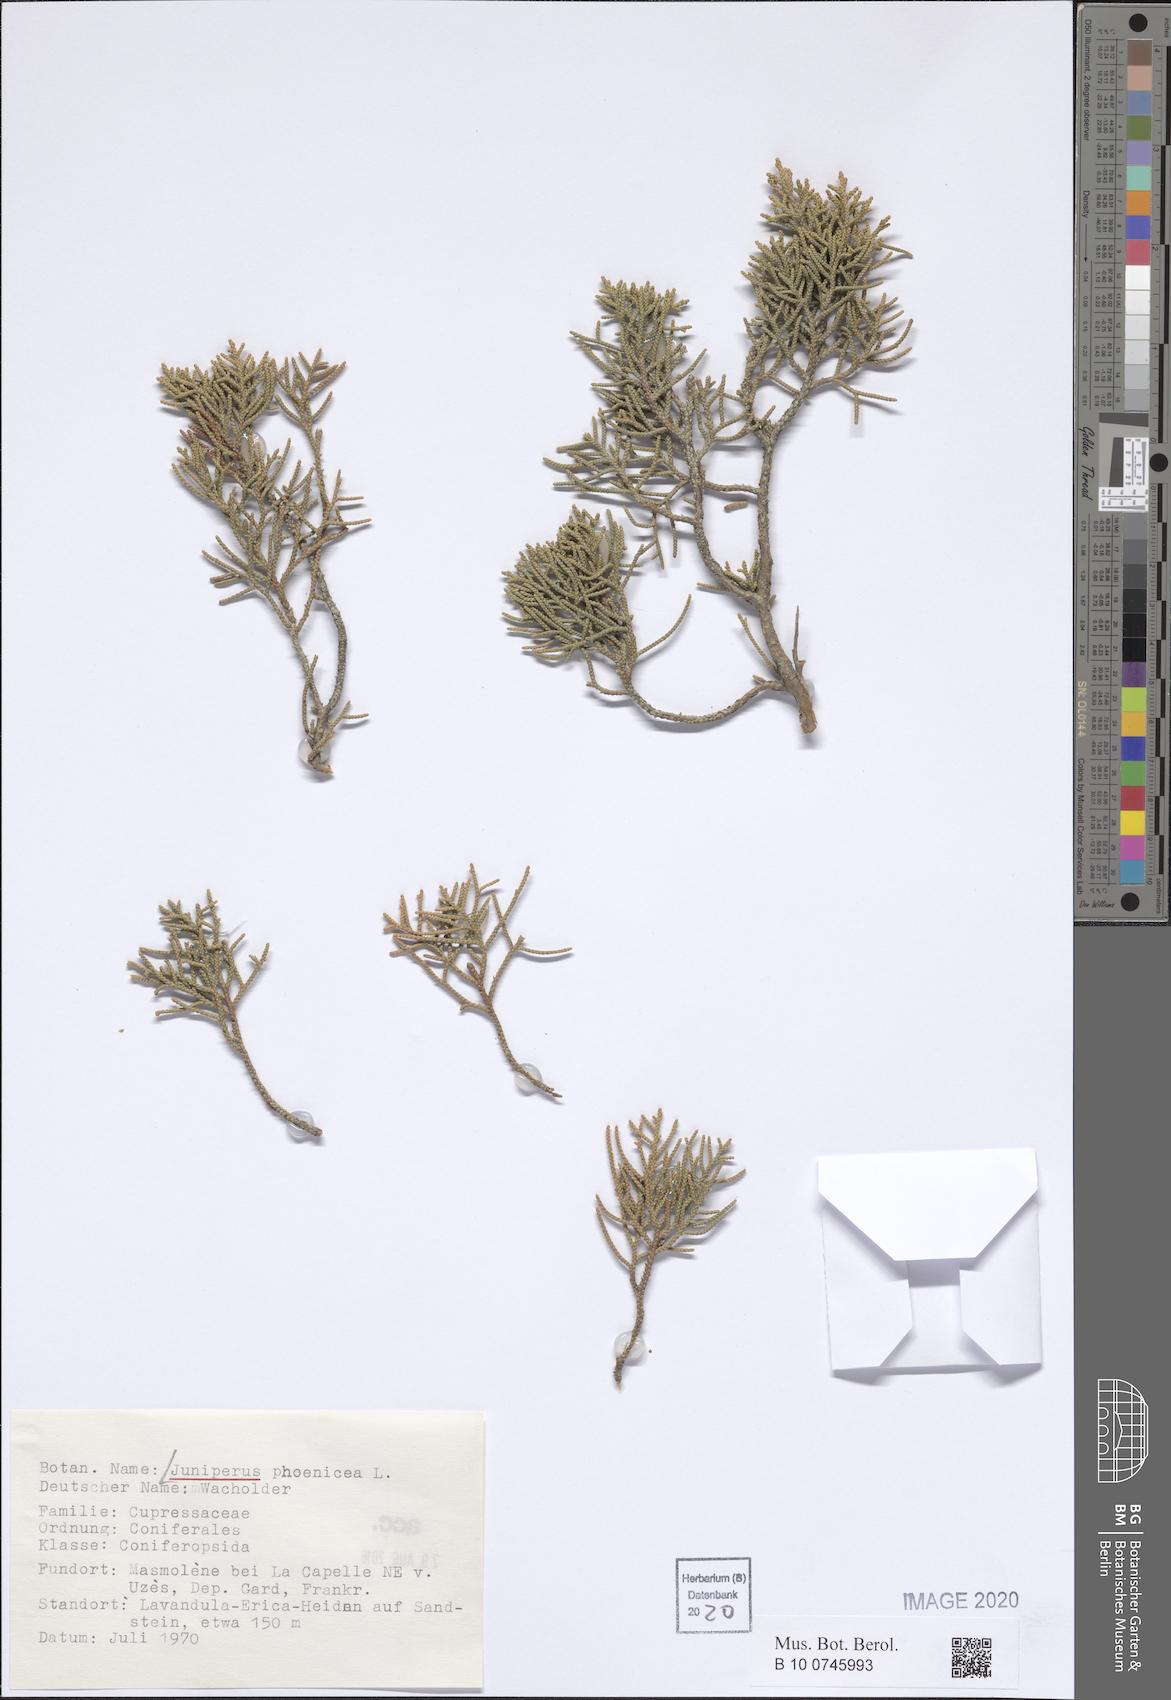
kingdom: Plantae
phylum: Tracheophyta
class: Pinopsida
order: Pinales
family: Cupressaceae
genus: Juniperus
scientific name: Juniperus phoenicea
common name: Phoenician juniper
